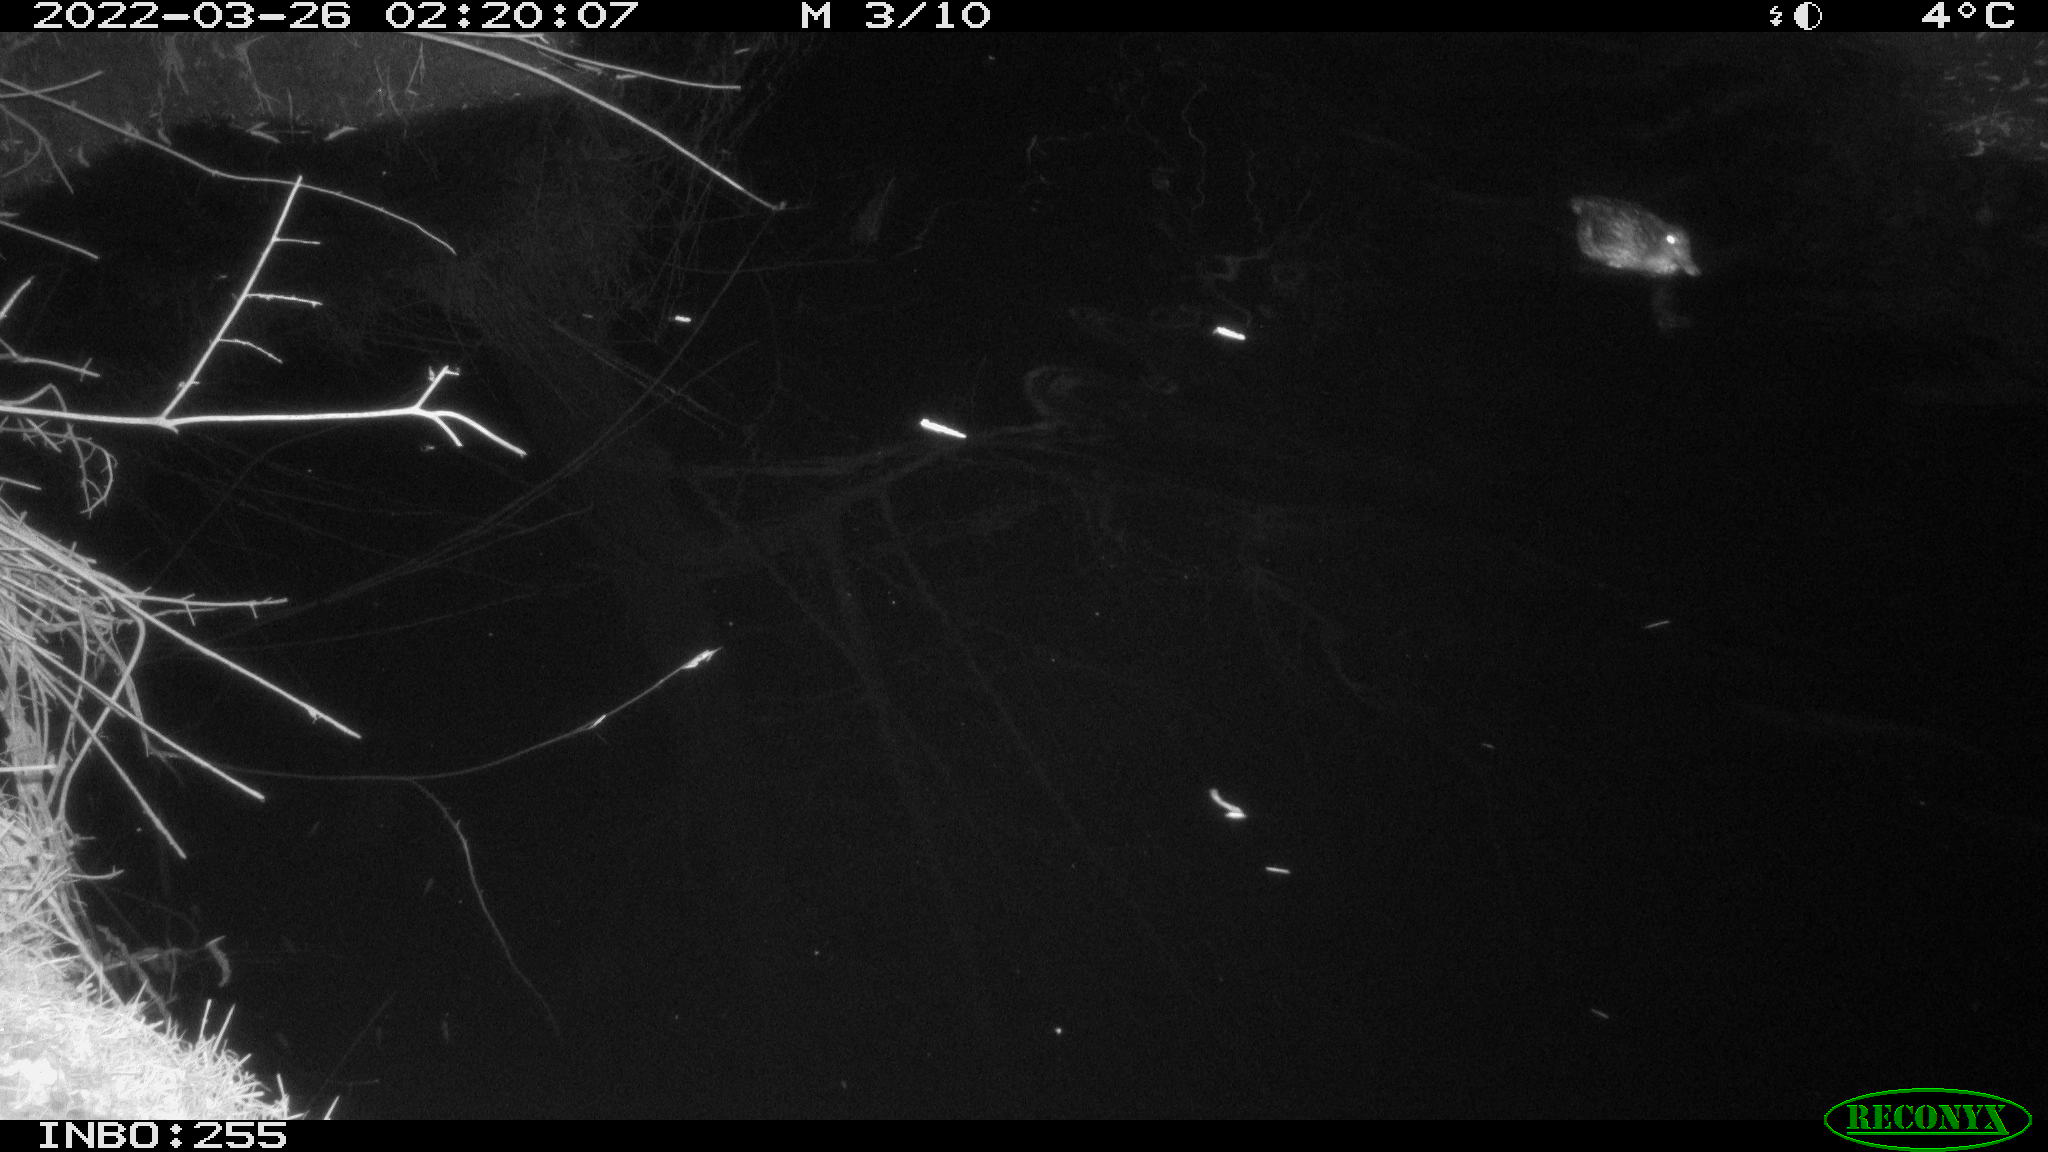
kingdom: Animalia
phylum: Chordata
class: Aves
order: Anseriformes
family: Anatidae
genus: Anas
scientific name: Anas platyrhynchos
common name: Mallard
